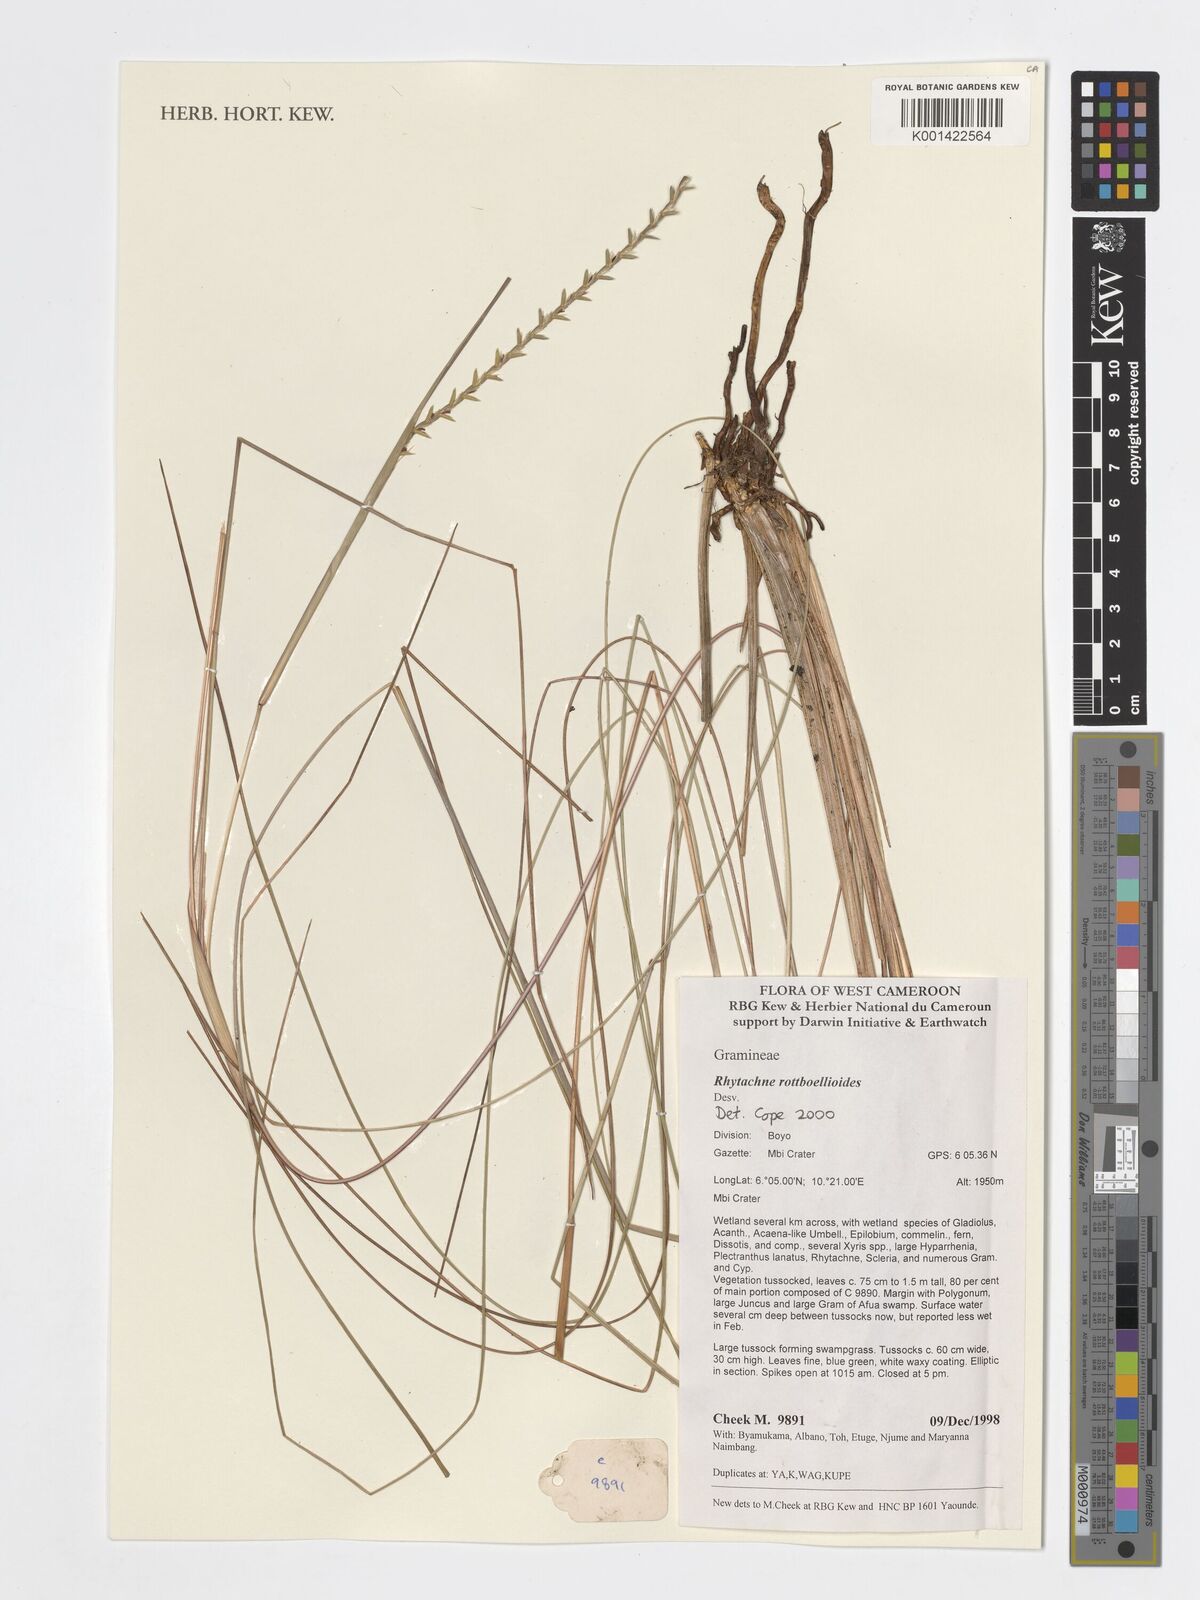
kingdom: Plantae
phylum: Tracheophyta
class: Liliopsida
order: Poales
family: Poaceae
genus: Rhytachne
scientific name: Rhytachne rottboellioides
